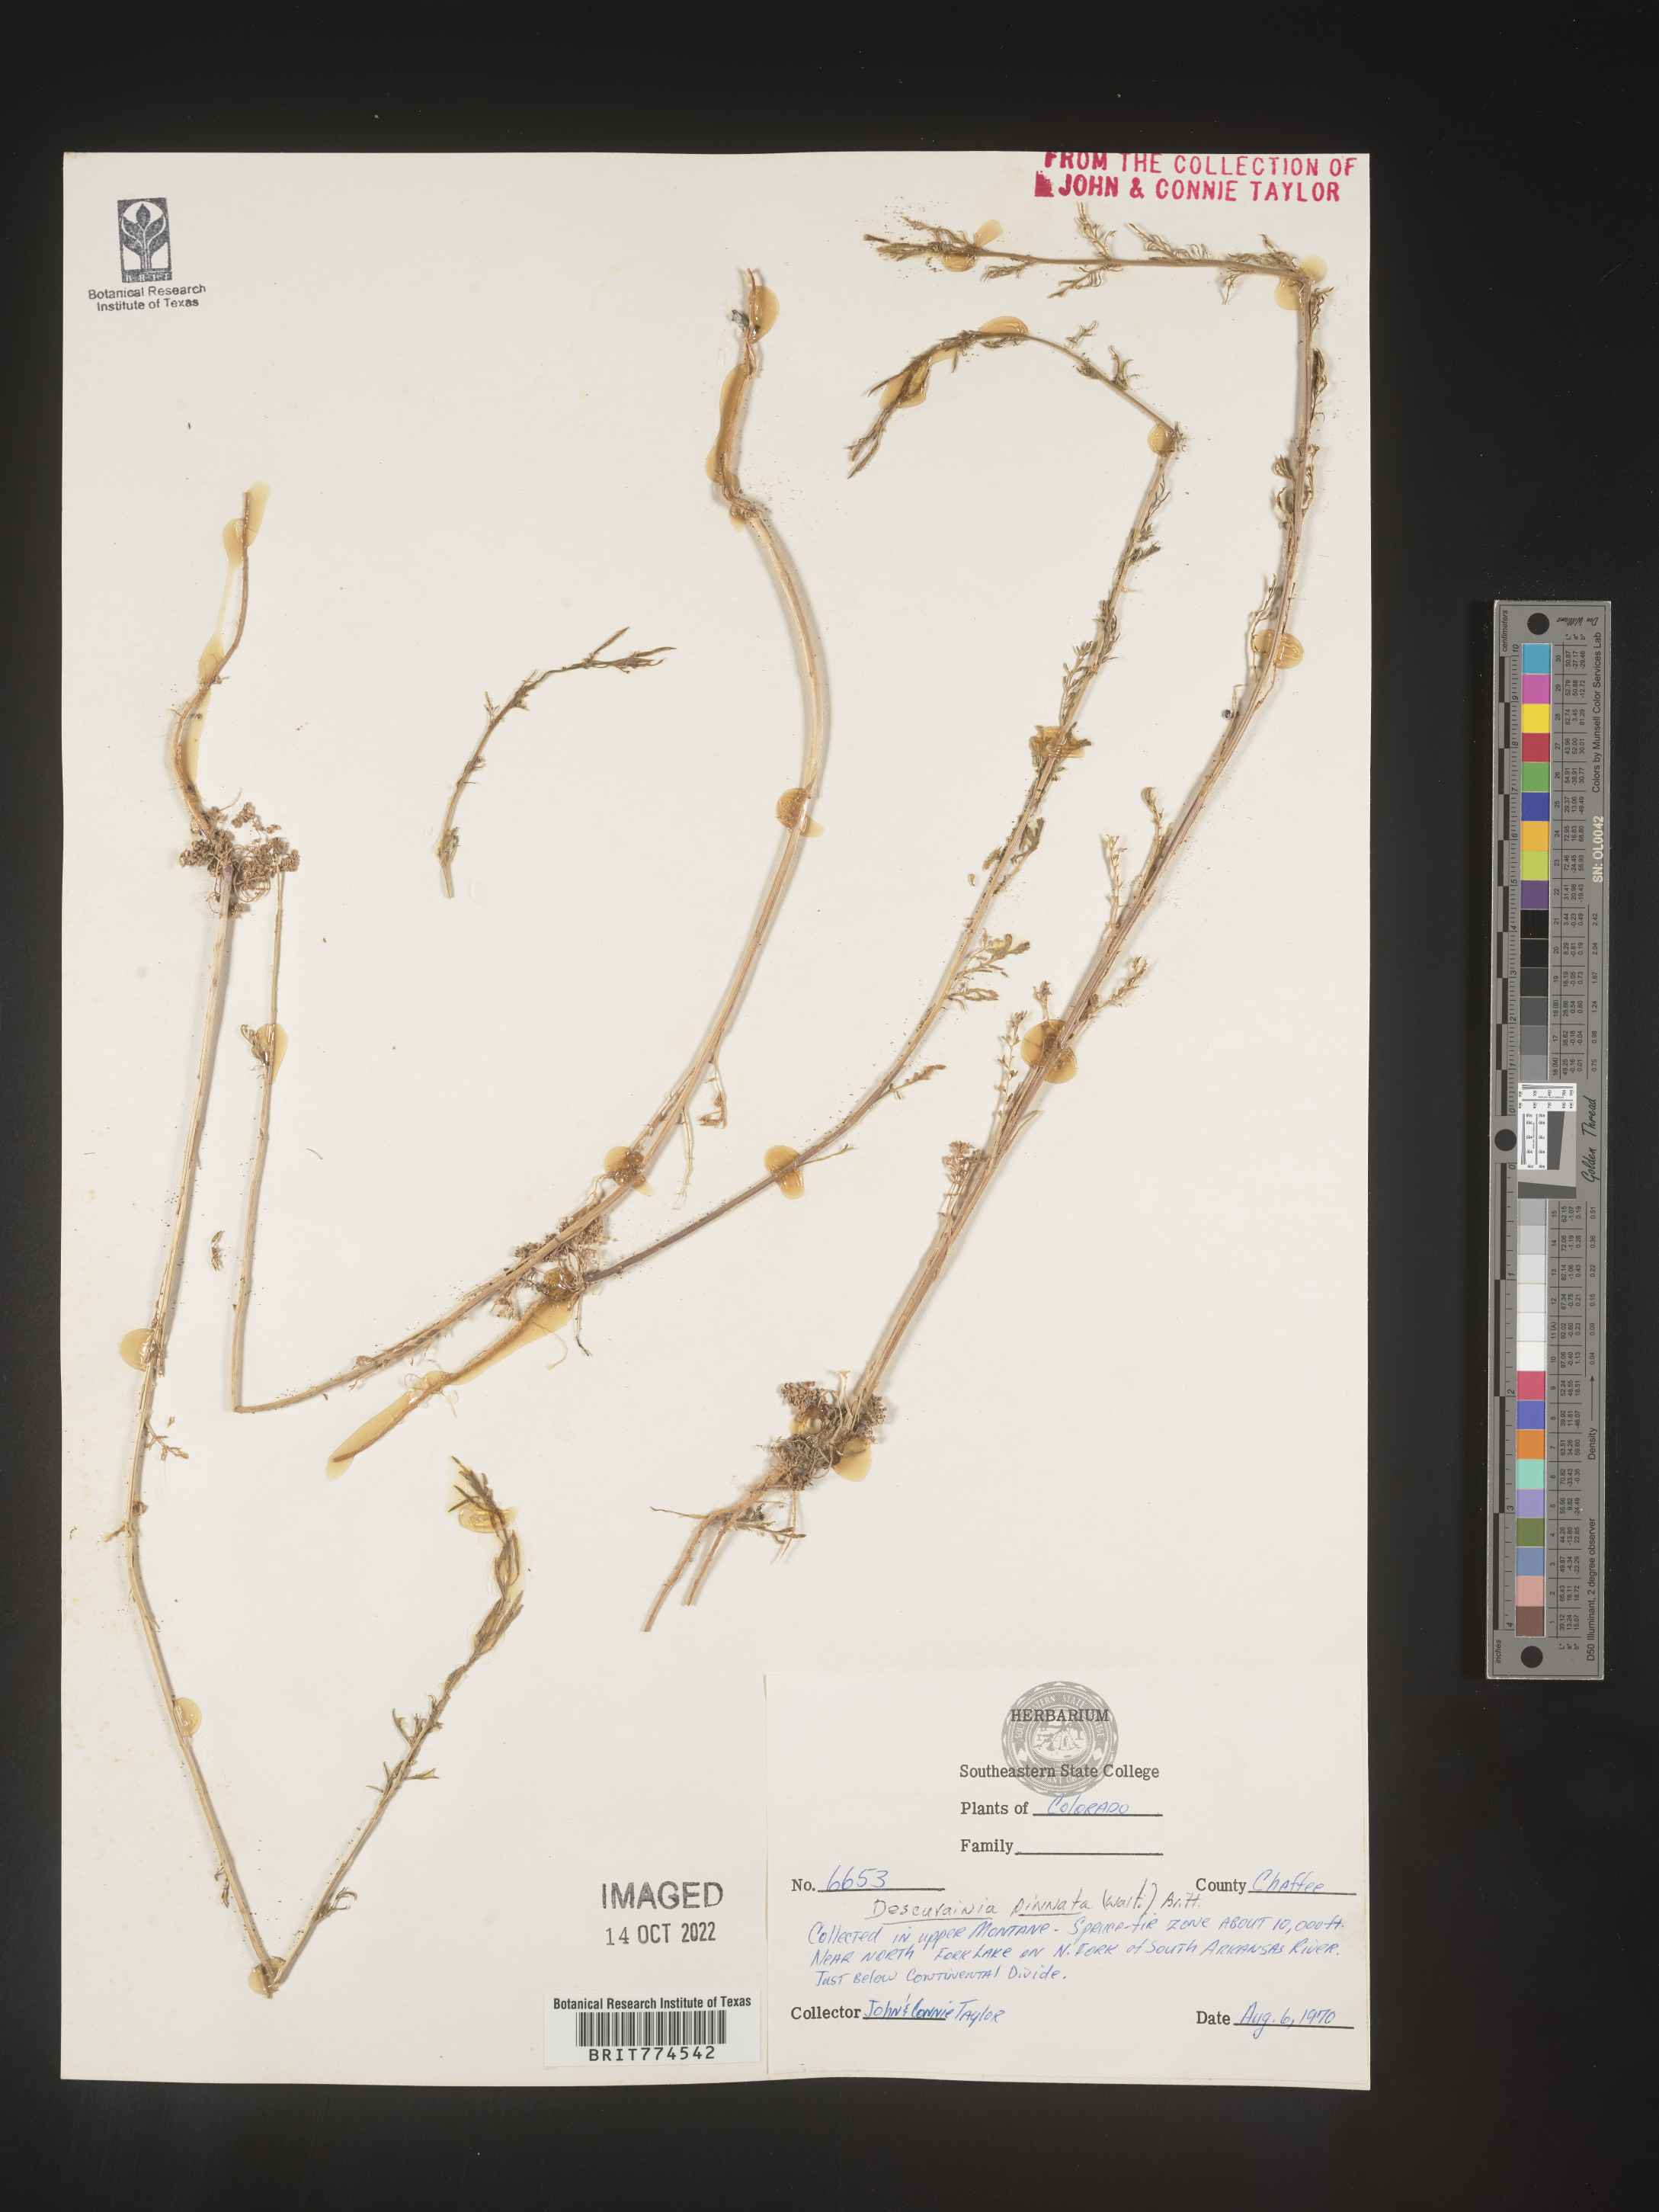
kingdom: Plantae
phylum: Tracheophyta
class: Magnoliopsida
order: Brassicales
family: Brassicaceae
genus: Descurainia
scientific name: Descurainia pinnata
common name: Western tansy mustard
